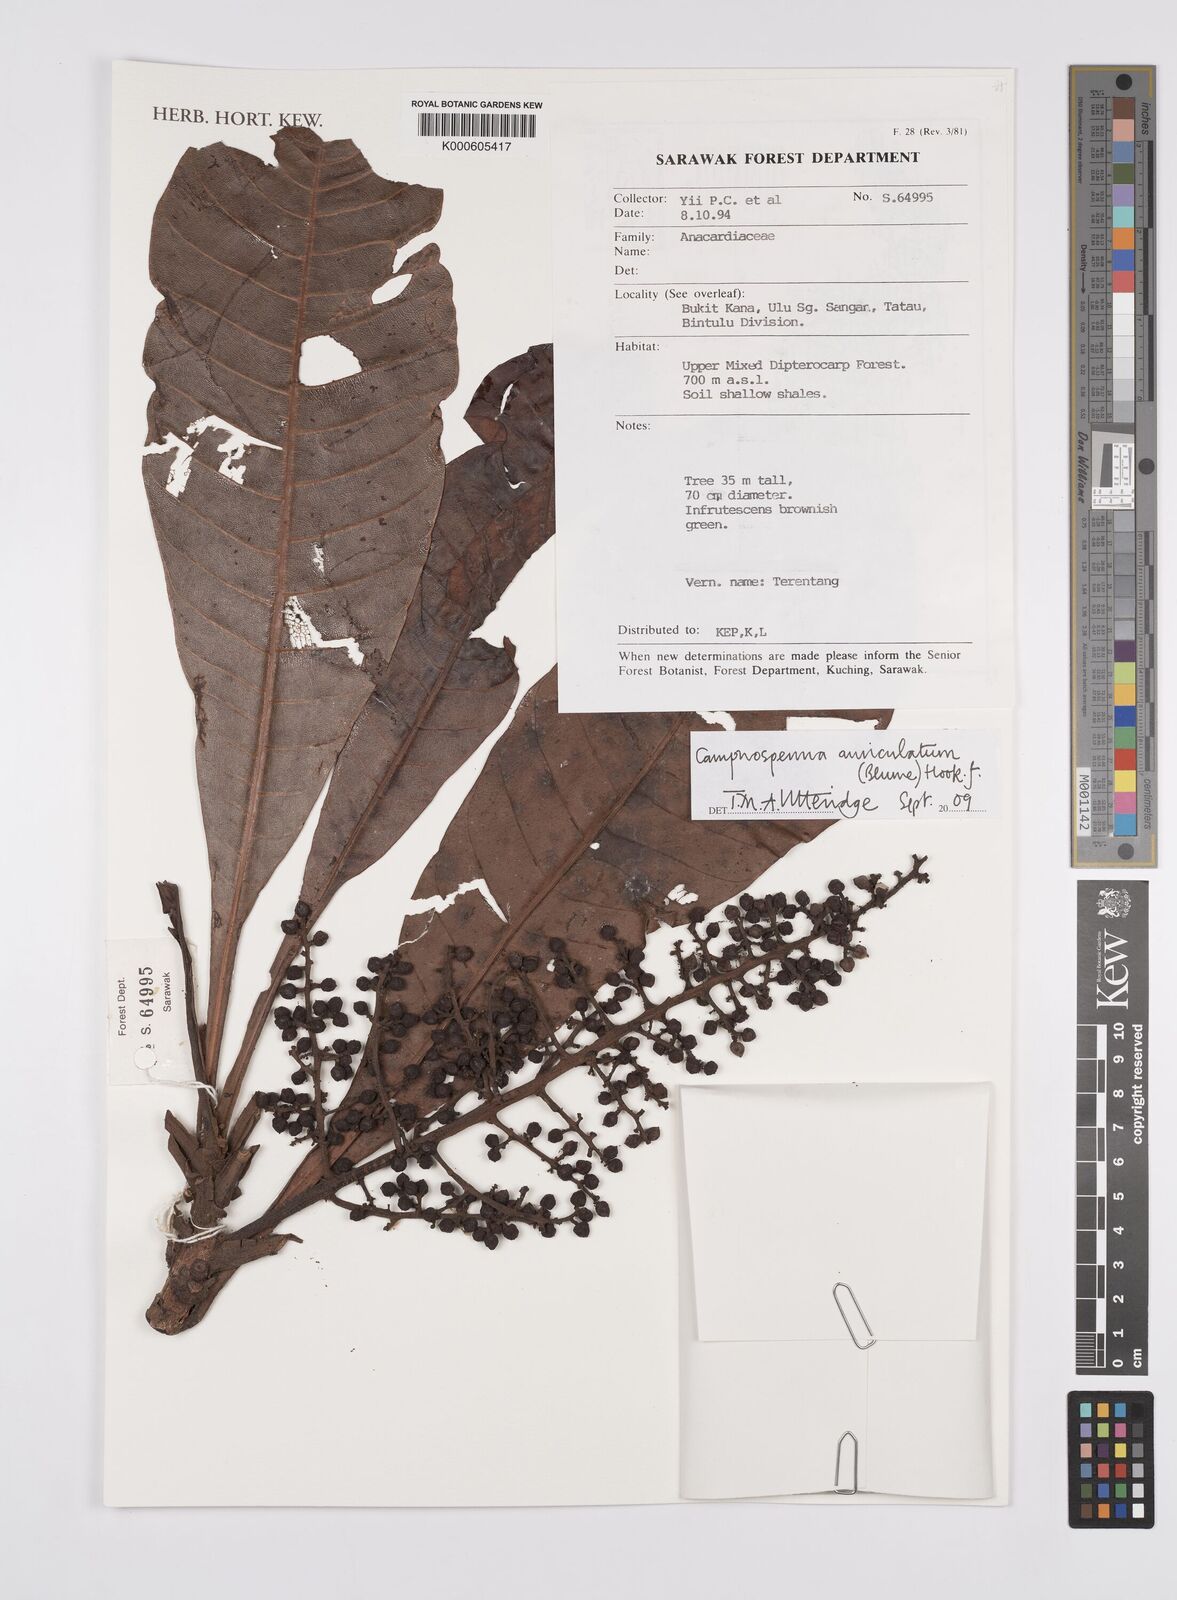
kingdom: Plantae
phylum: Tracheophyta
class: Magnoliopsida
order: Sapindales
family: Anacardiaceae
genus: Campnosperma
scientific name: Campnosperma auriculatum
